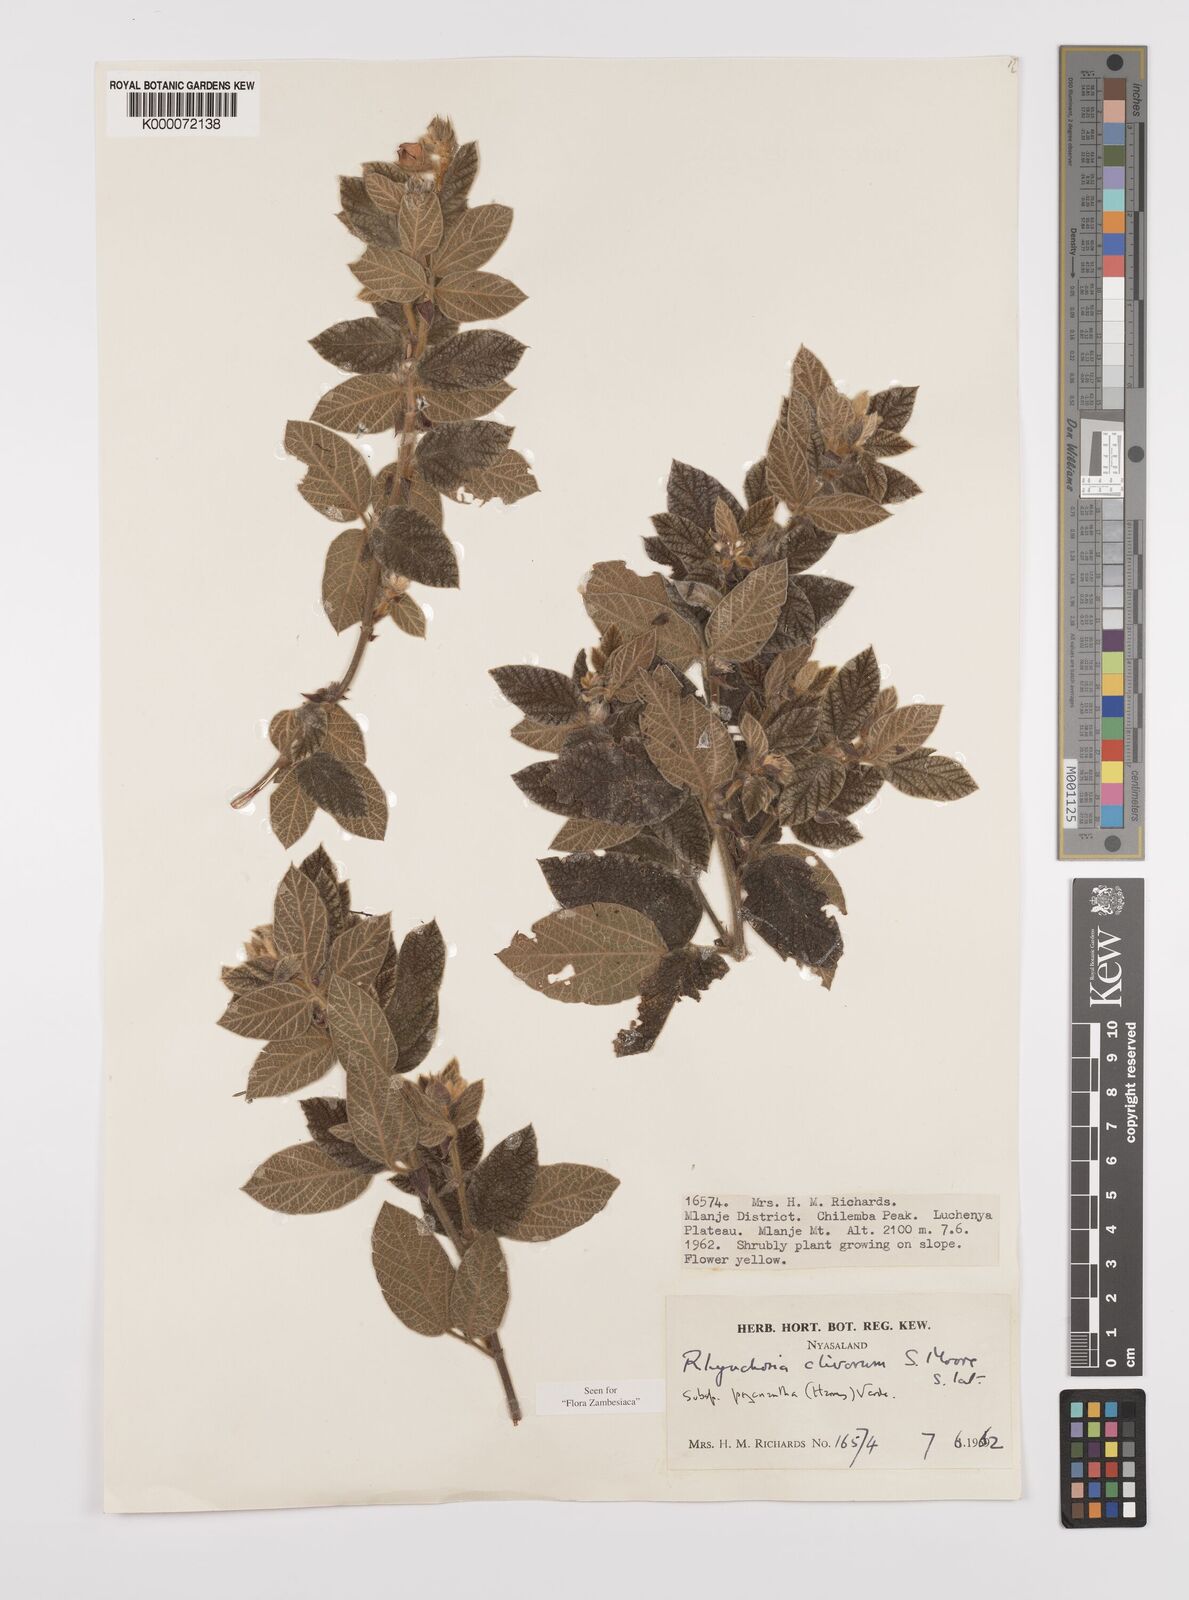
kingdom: Plantae
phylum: Tracheophyta
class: Magnoliopsida
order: Fabales
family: Fabaceae
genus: Rhynchosia
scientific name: Rhynchosia clivorum
